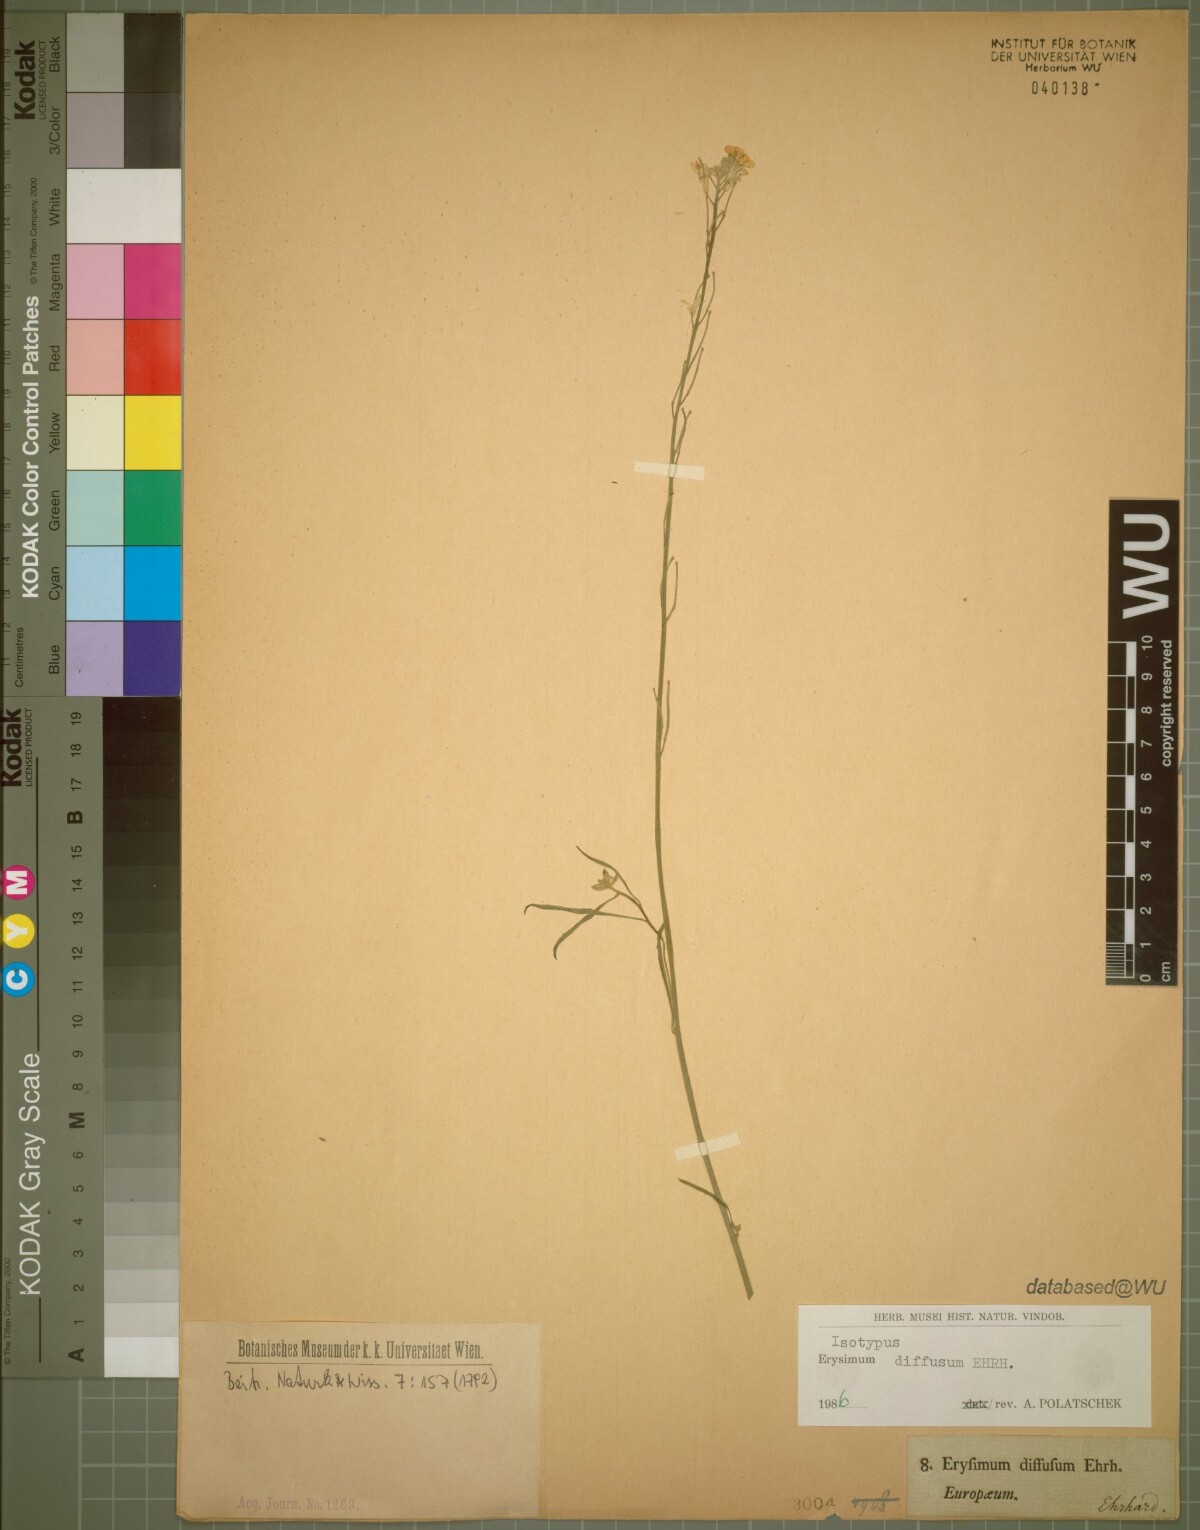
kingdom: Plantae
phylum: Tracheophyta
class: Magnoliopsida
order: Brassicales
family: Brassicaceae
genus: Erysimum
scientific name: Erysimum diffusum
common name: Diffuse wallflower
